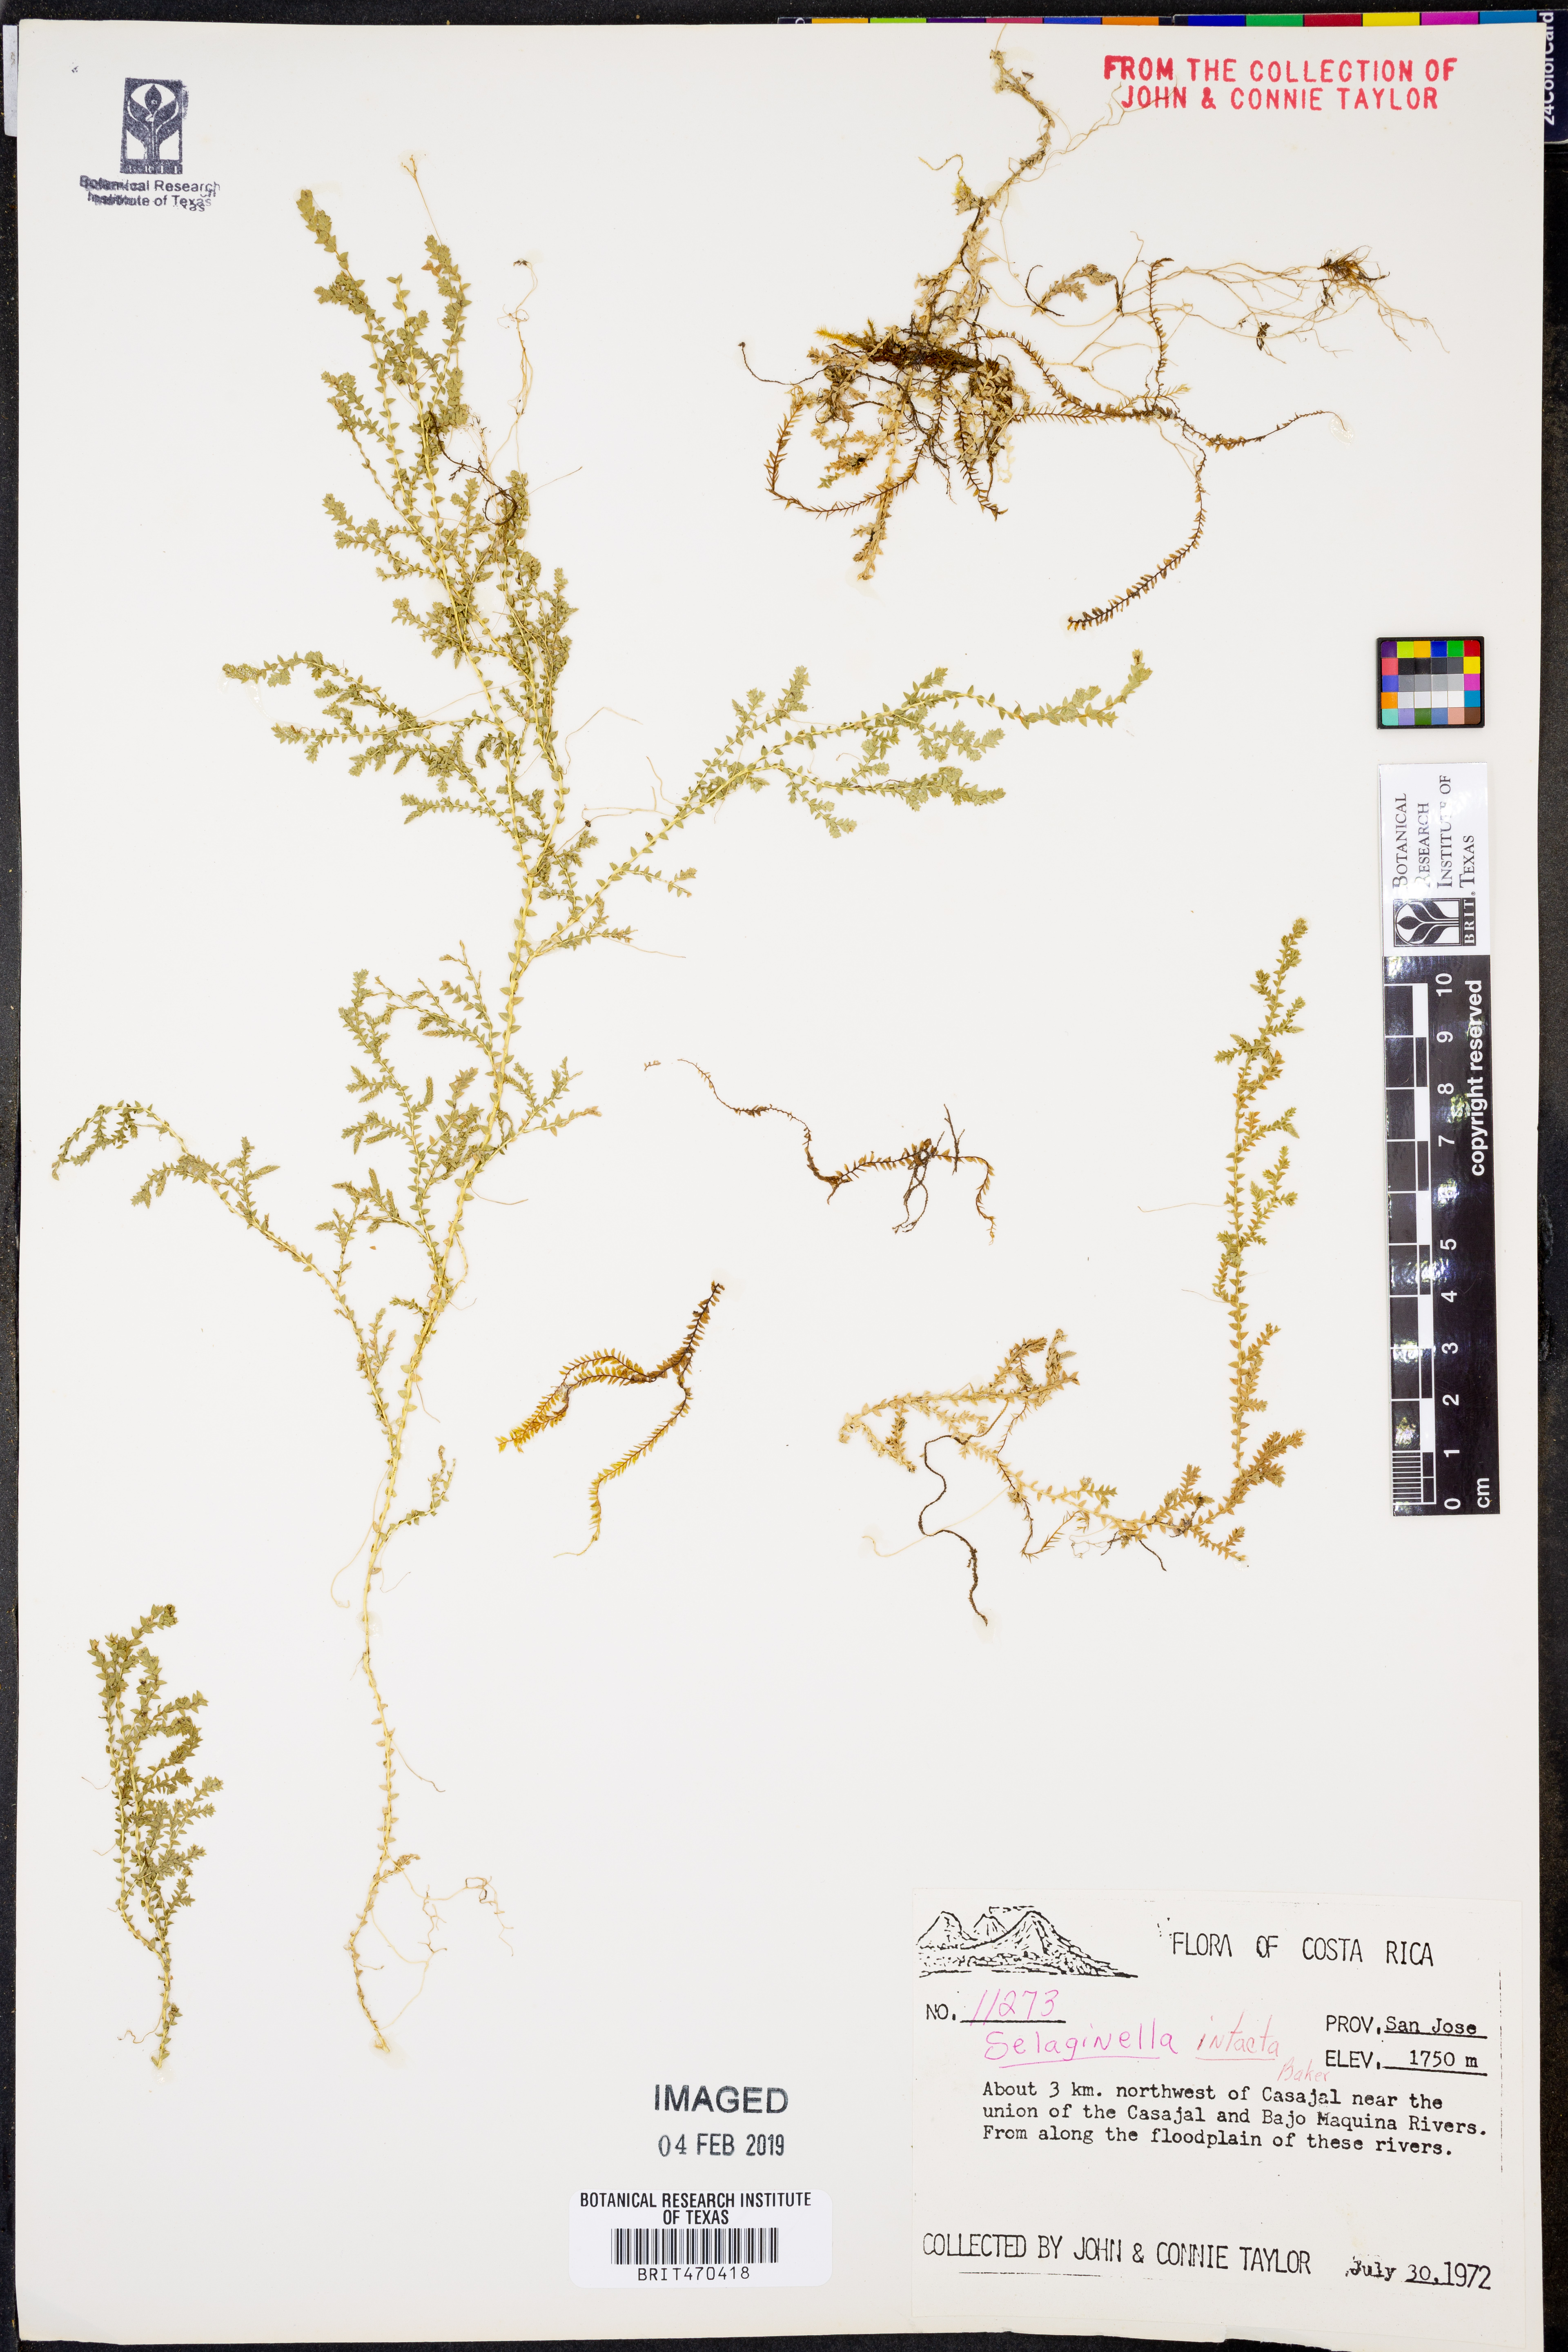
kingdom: Plantae
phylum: Tracheophyta
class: Lycopodiopsida
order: Selaginellales
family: Selaginellaceae
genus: Selaginella
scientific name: Selaginella lingulata
